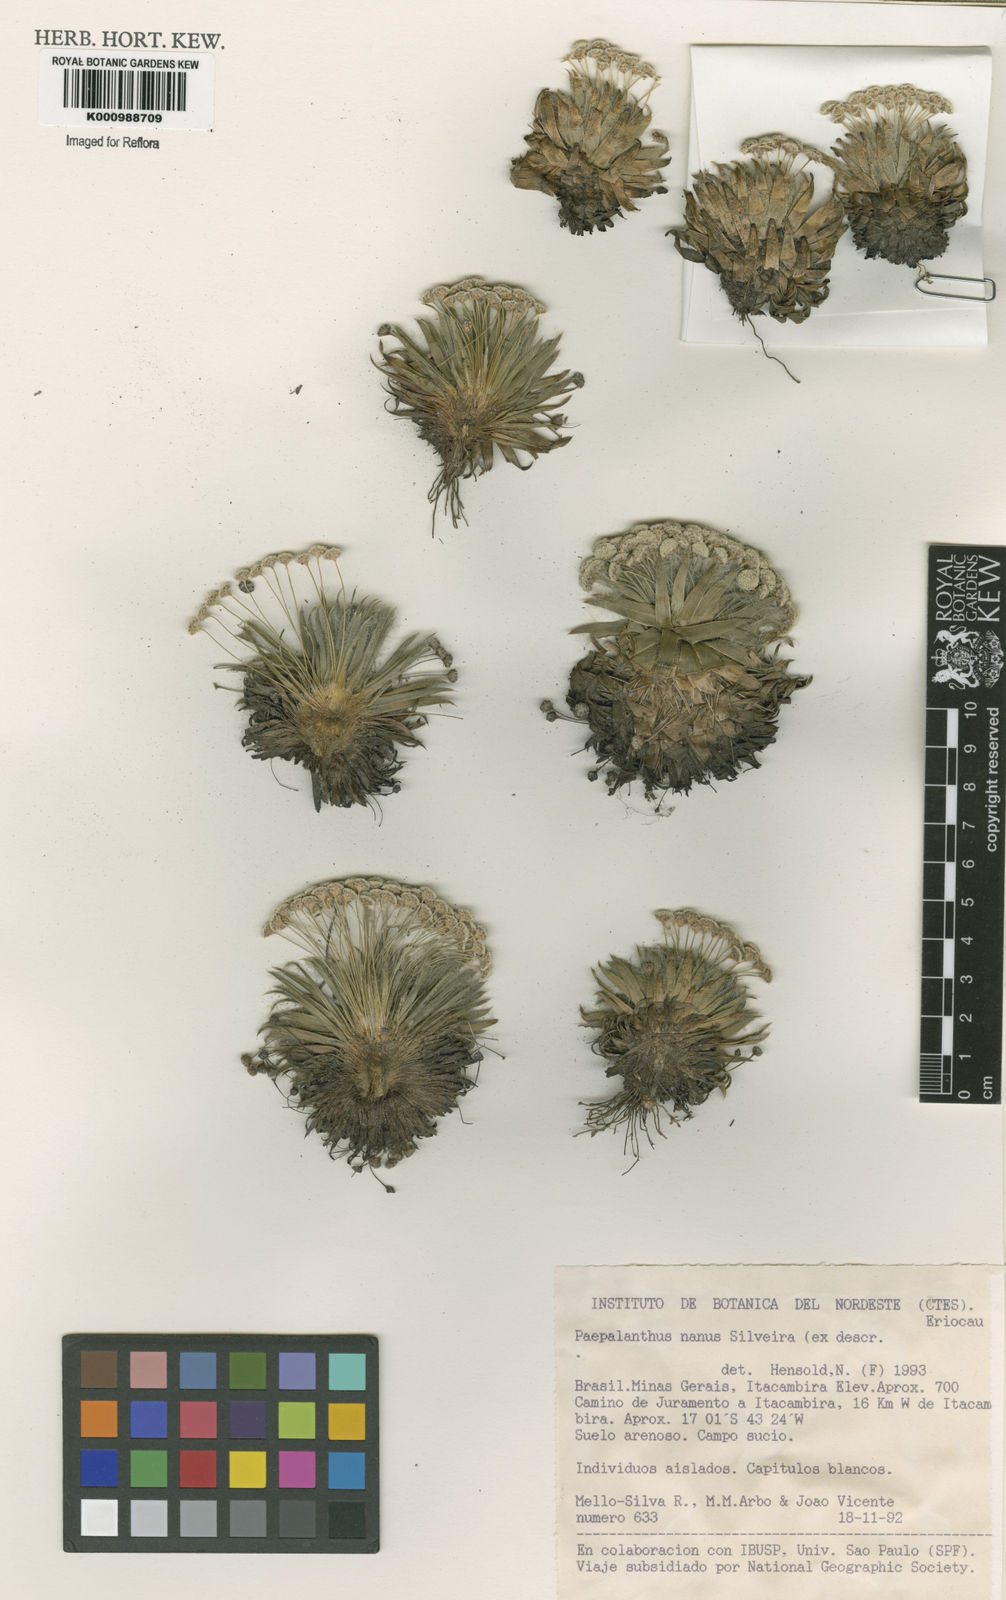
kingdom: Plantae
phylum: Tracheophyta
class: Liliopsida
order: Poales
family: Eriocaulaceae
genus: Paepalanthus
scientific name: Paepalanthus nanus
